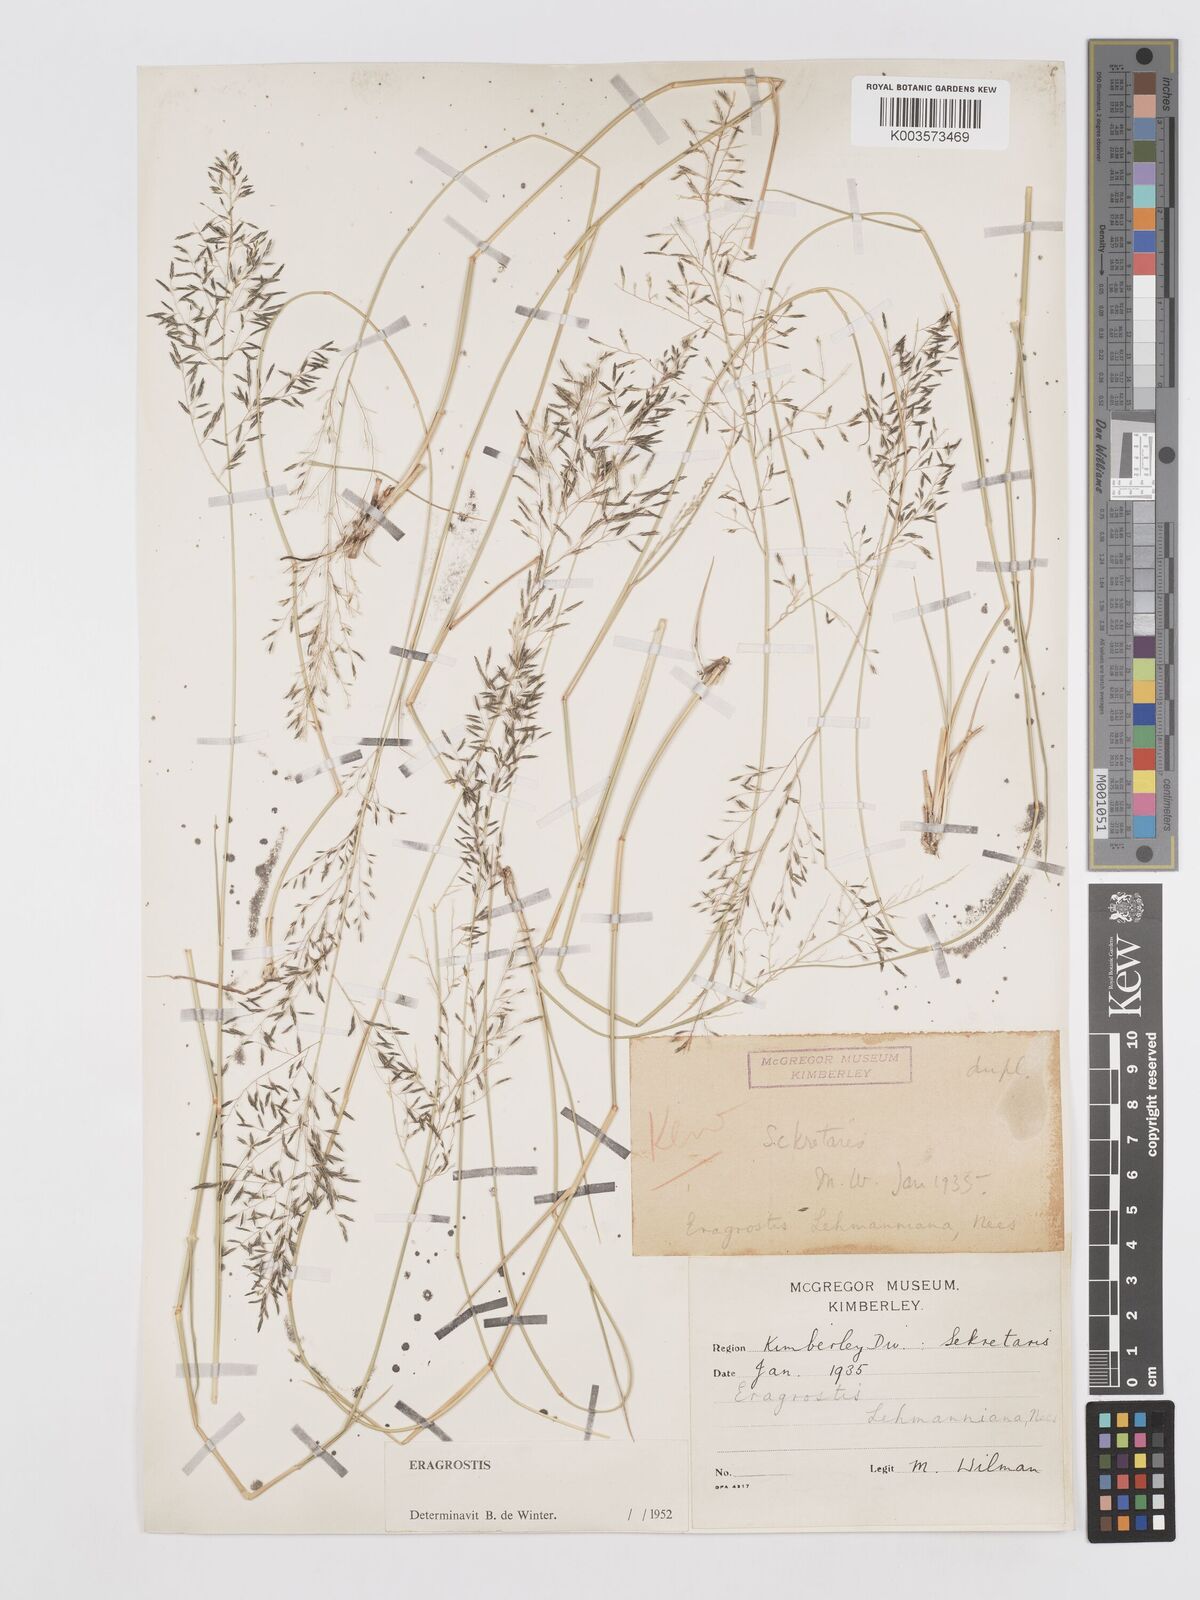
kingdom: Plantae
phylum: Tracheophyta
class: Liliopsida
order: Poales
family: Poaceae
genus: Eragrostis
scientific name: Eragrostis lehmanniana
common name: Lehmann lovegrass
